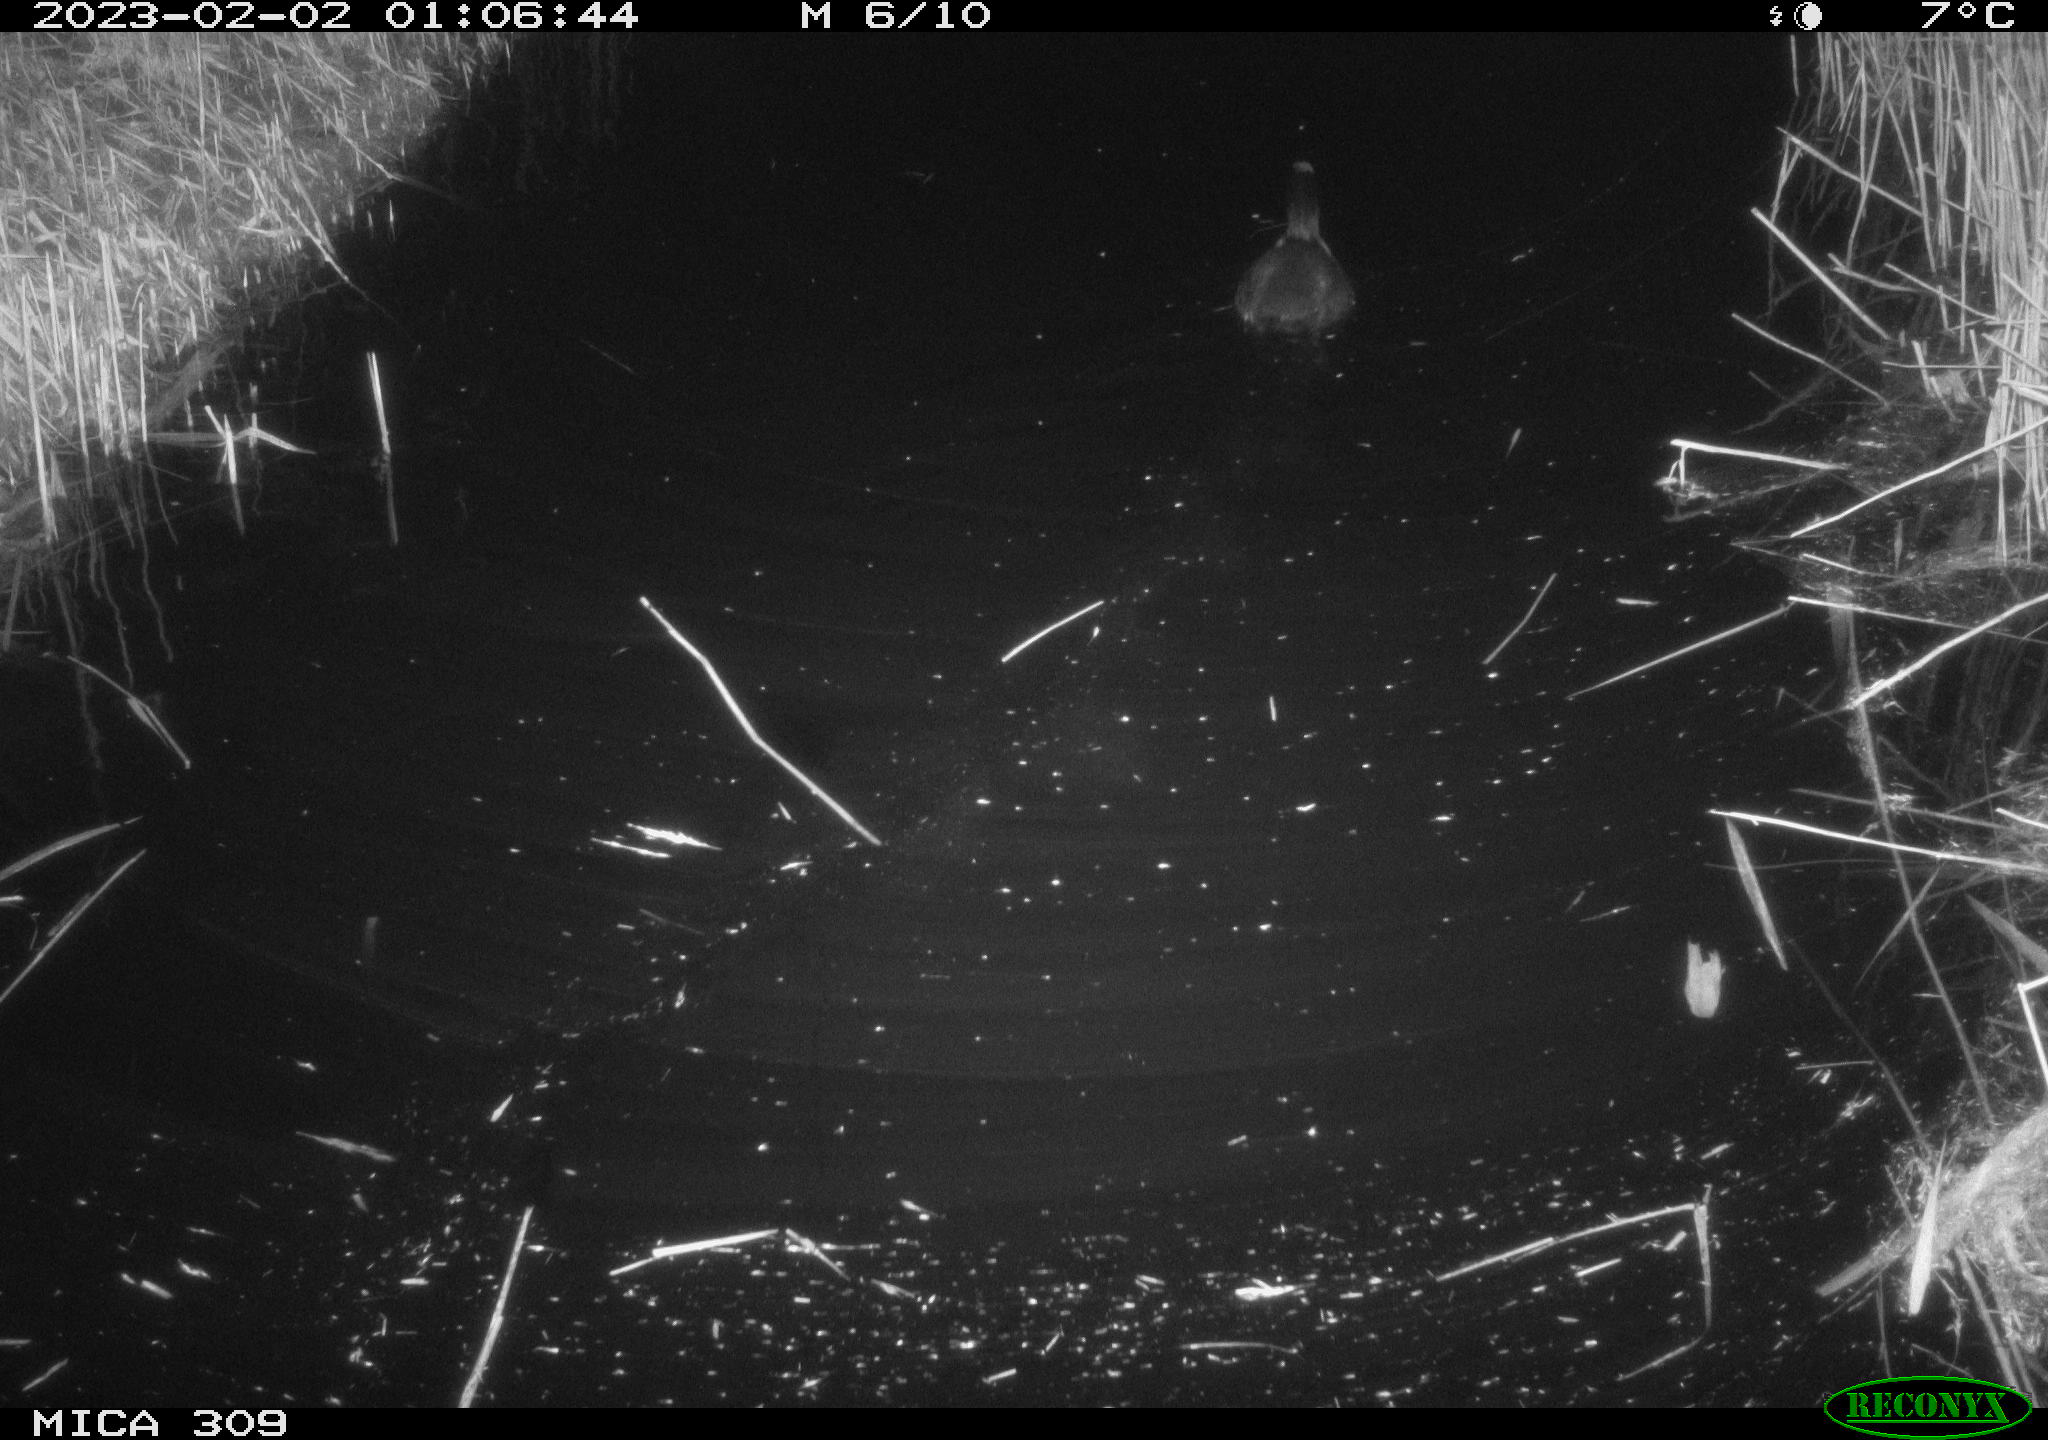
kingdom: Animalia
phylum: Chordata
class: Aves
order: Gruiformes
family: Rallidae
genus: Fulica
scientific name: Fulica atra
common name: Eurasian coot
